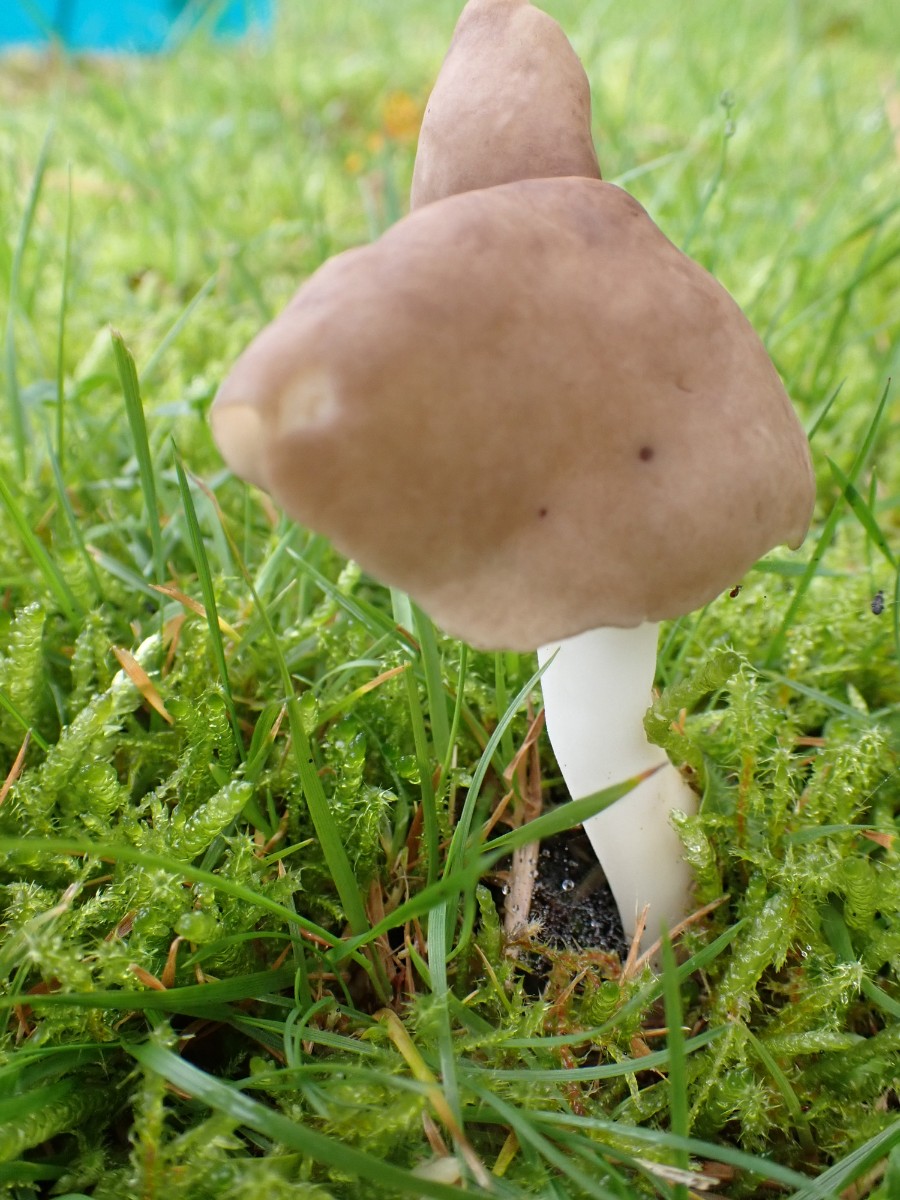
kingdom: Fungi
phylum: Ascomycota
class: Pezizomycetes
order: Pezizales
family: Helvellaceae
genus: Helvella
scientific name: Helvella elastica
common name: elastik-foldhat
